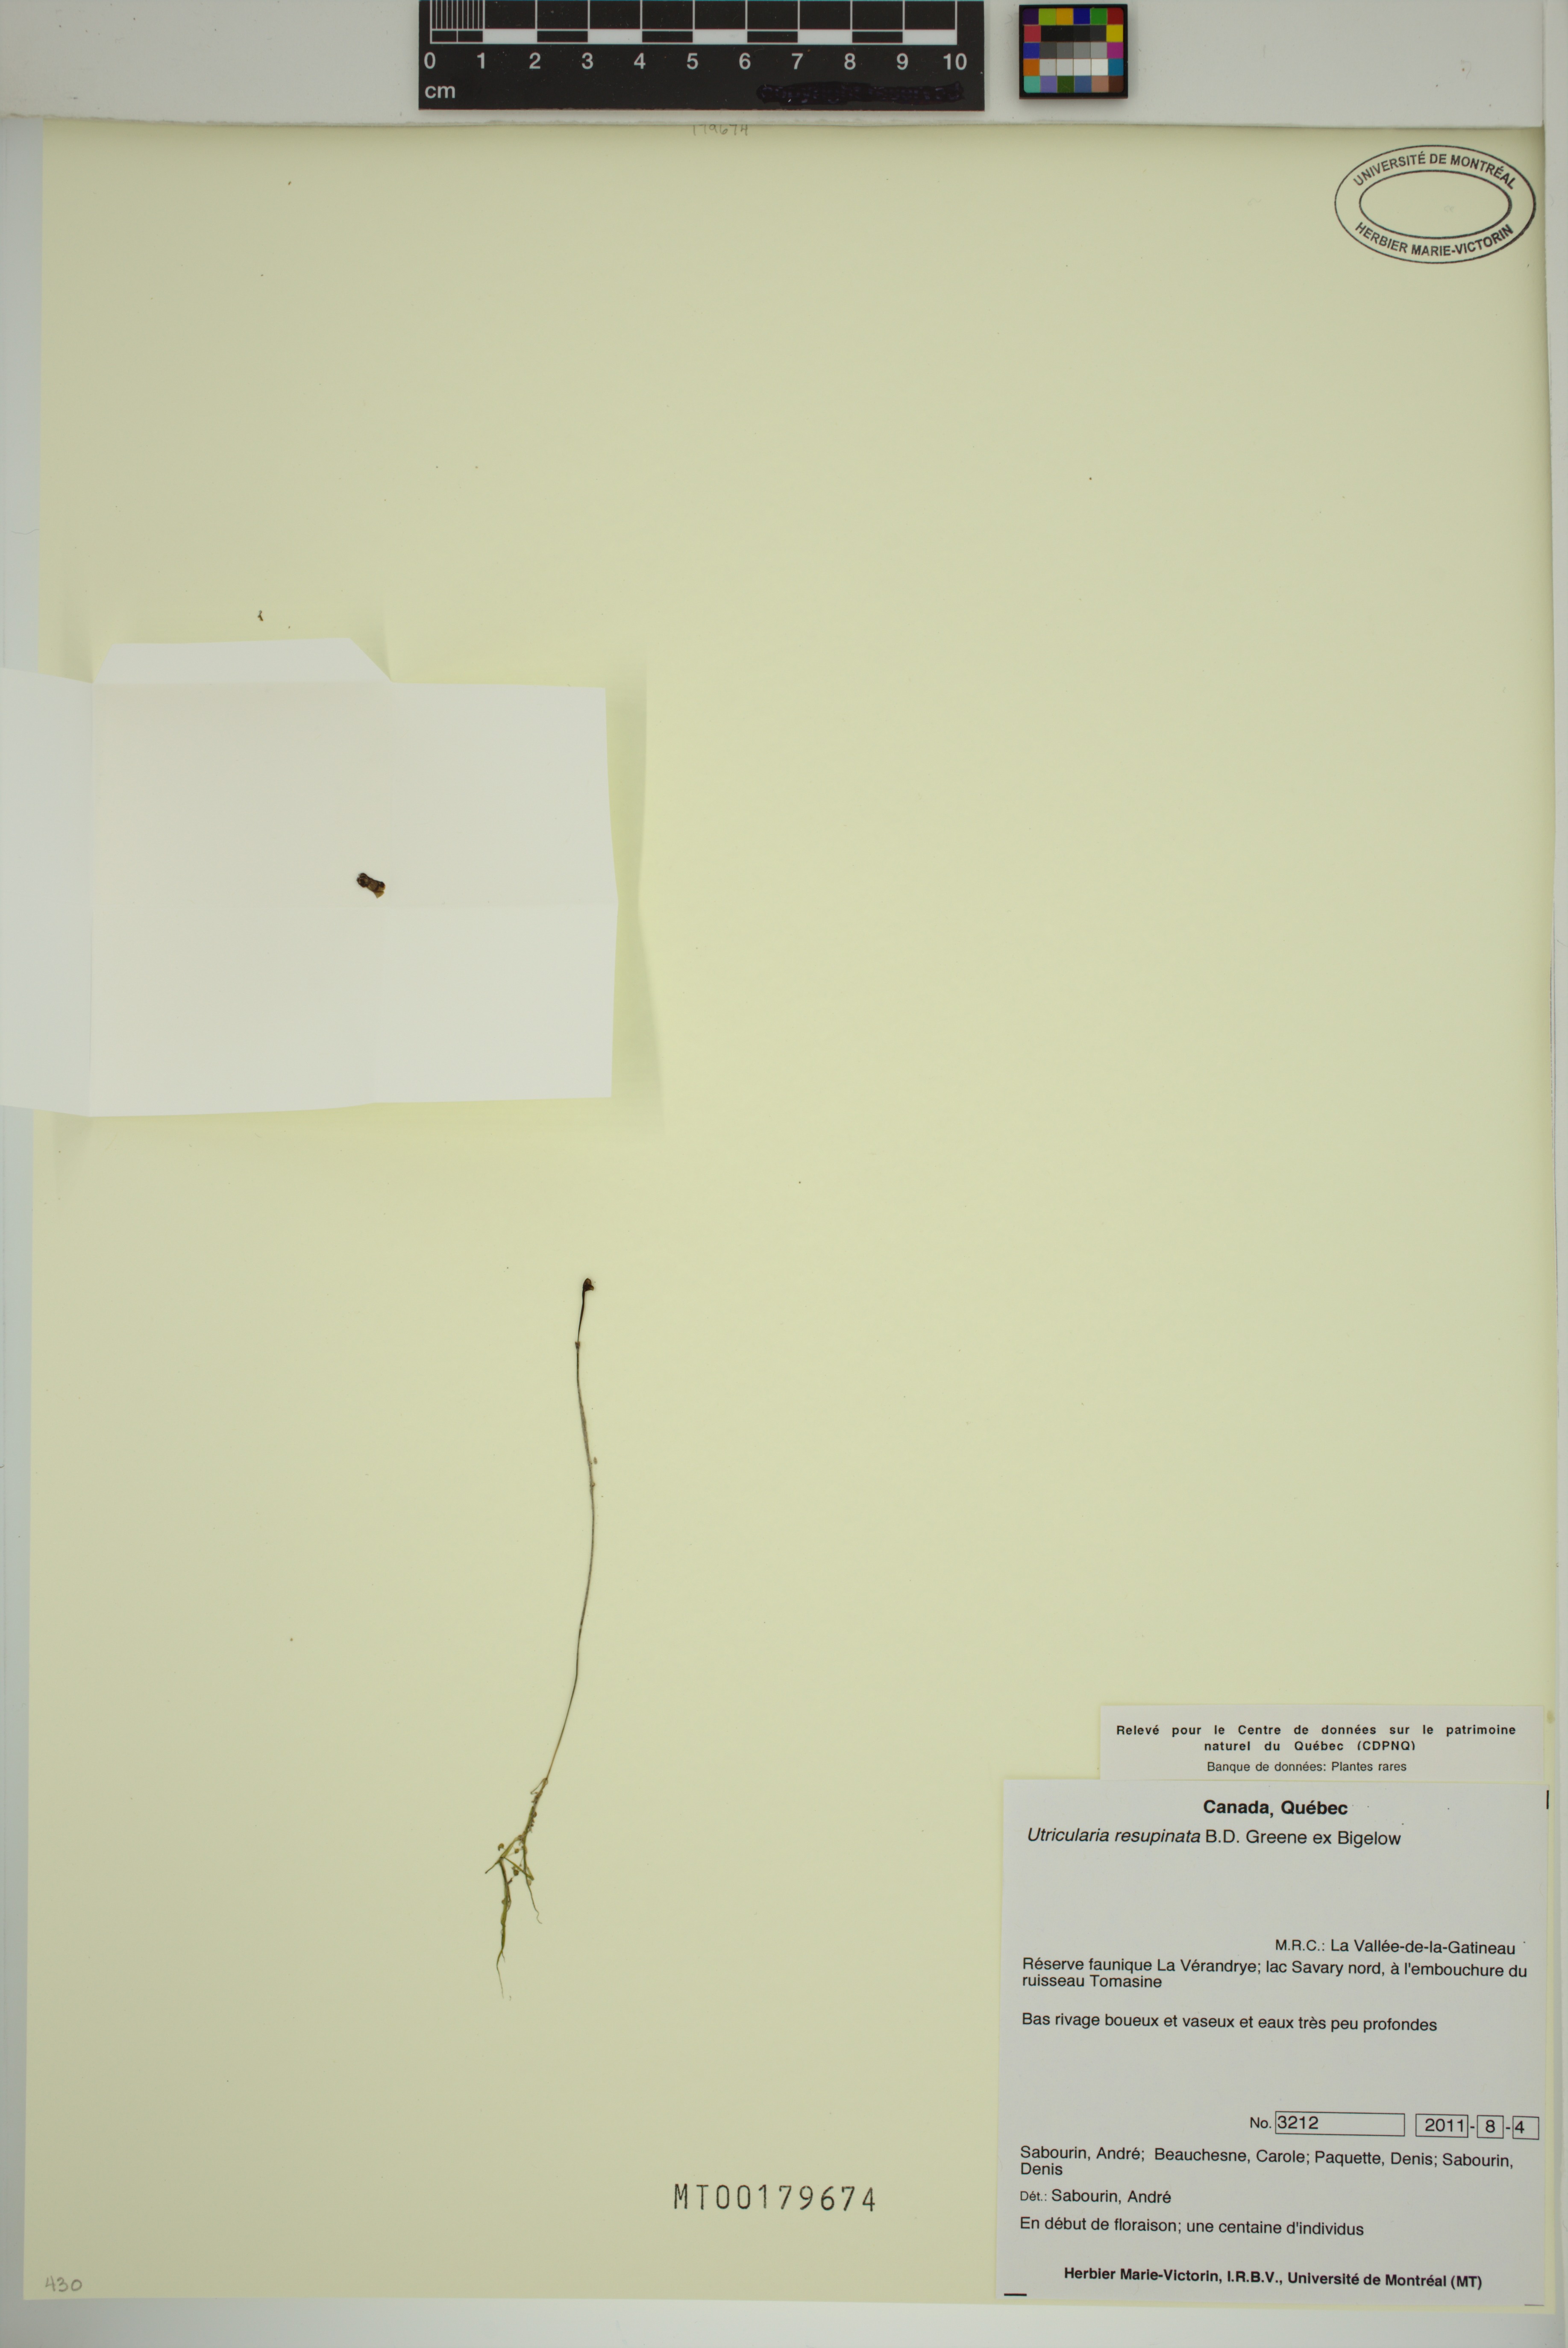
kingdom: Plantae
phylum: Tracheophyta
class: Magnoliopsida
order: Lamiales
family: Lentibulariaceae
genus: Utricularia
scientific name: Utricularia resupinata
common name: Northeastern bladderwort
